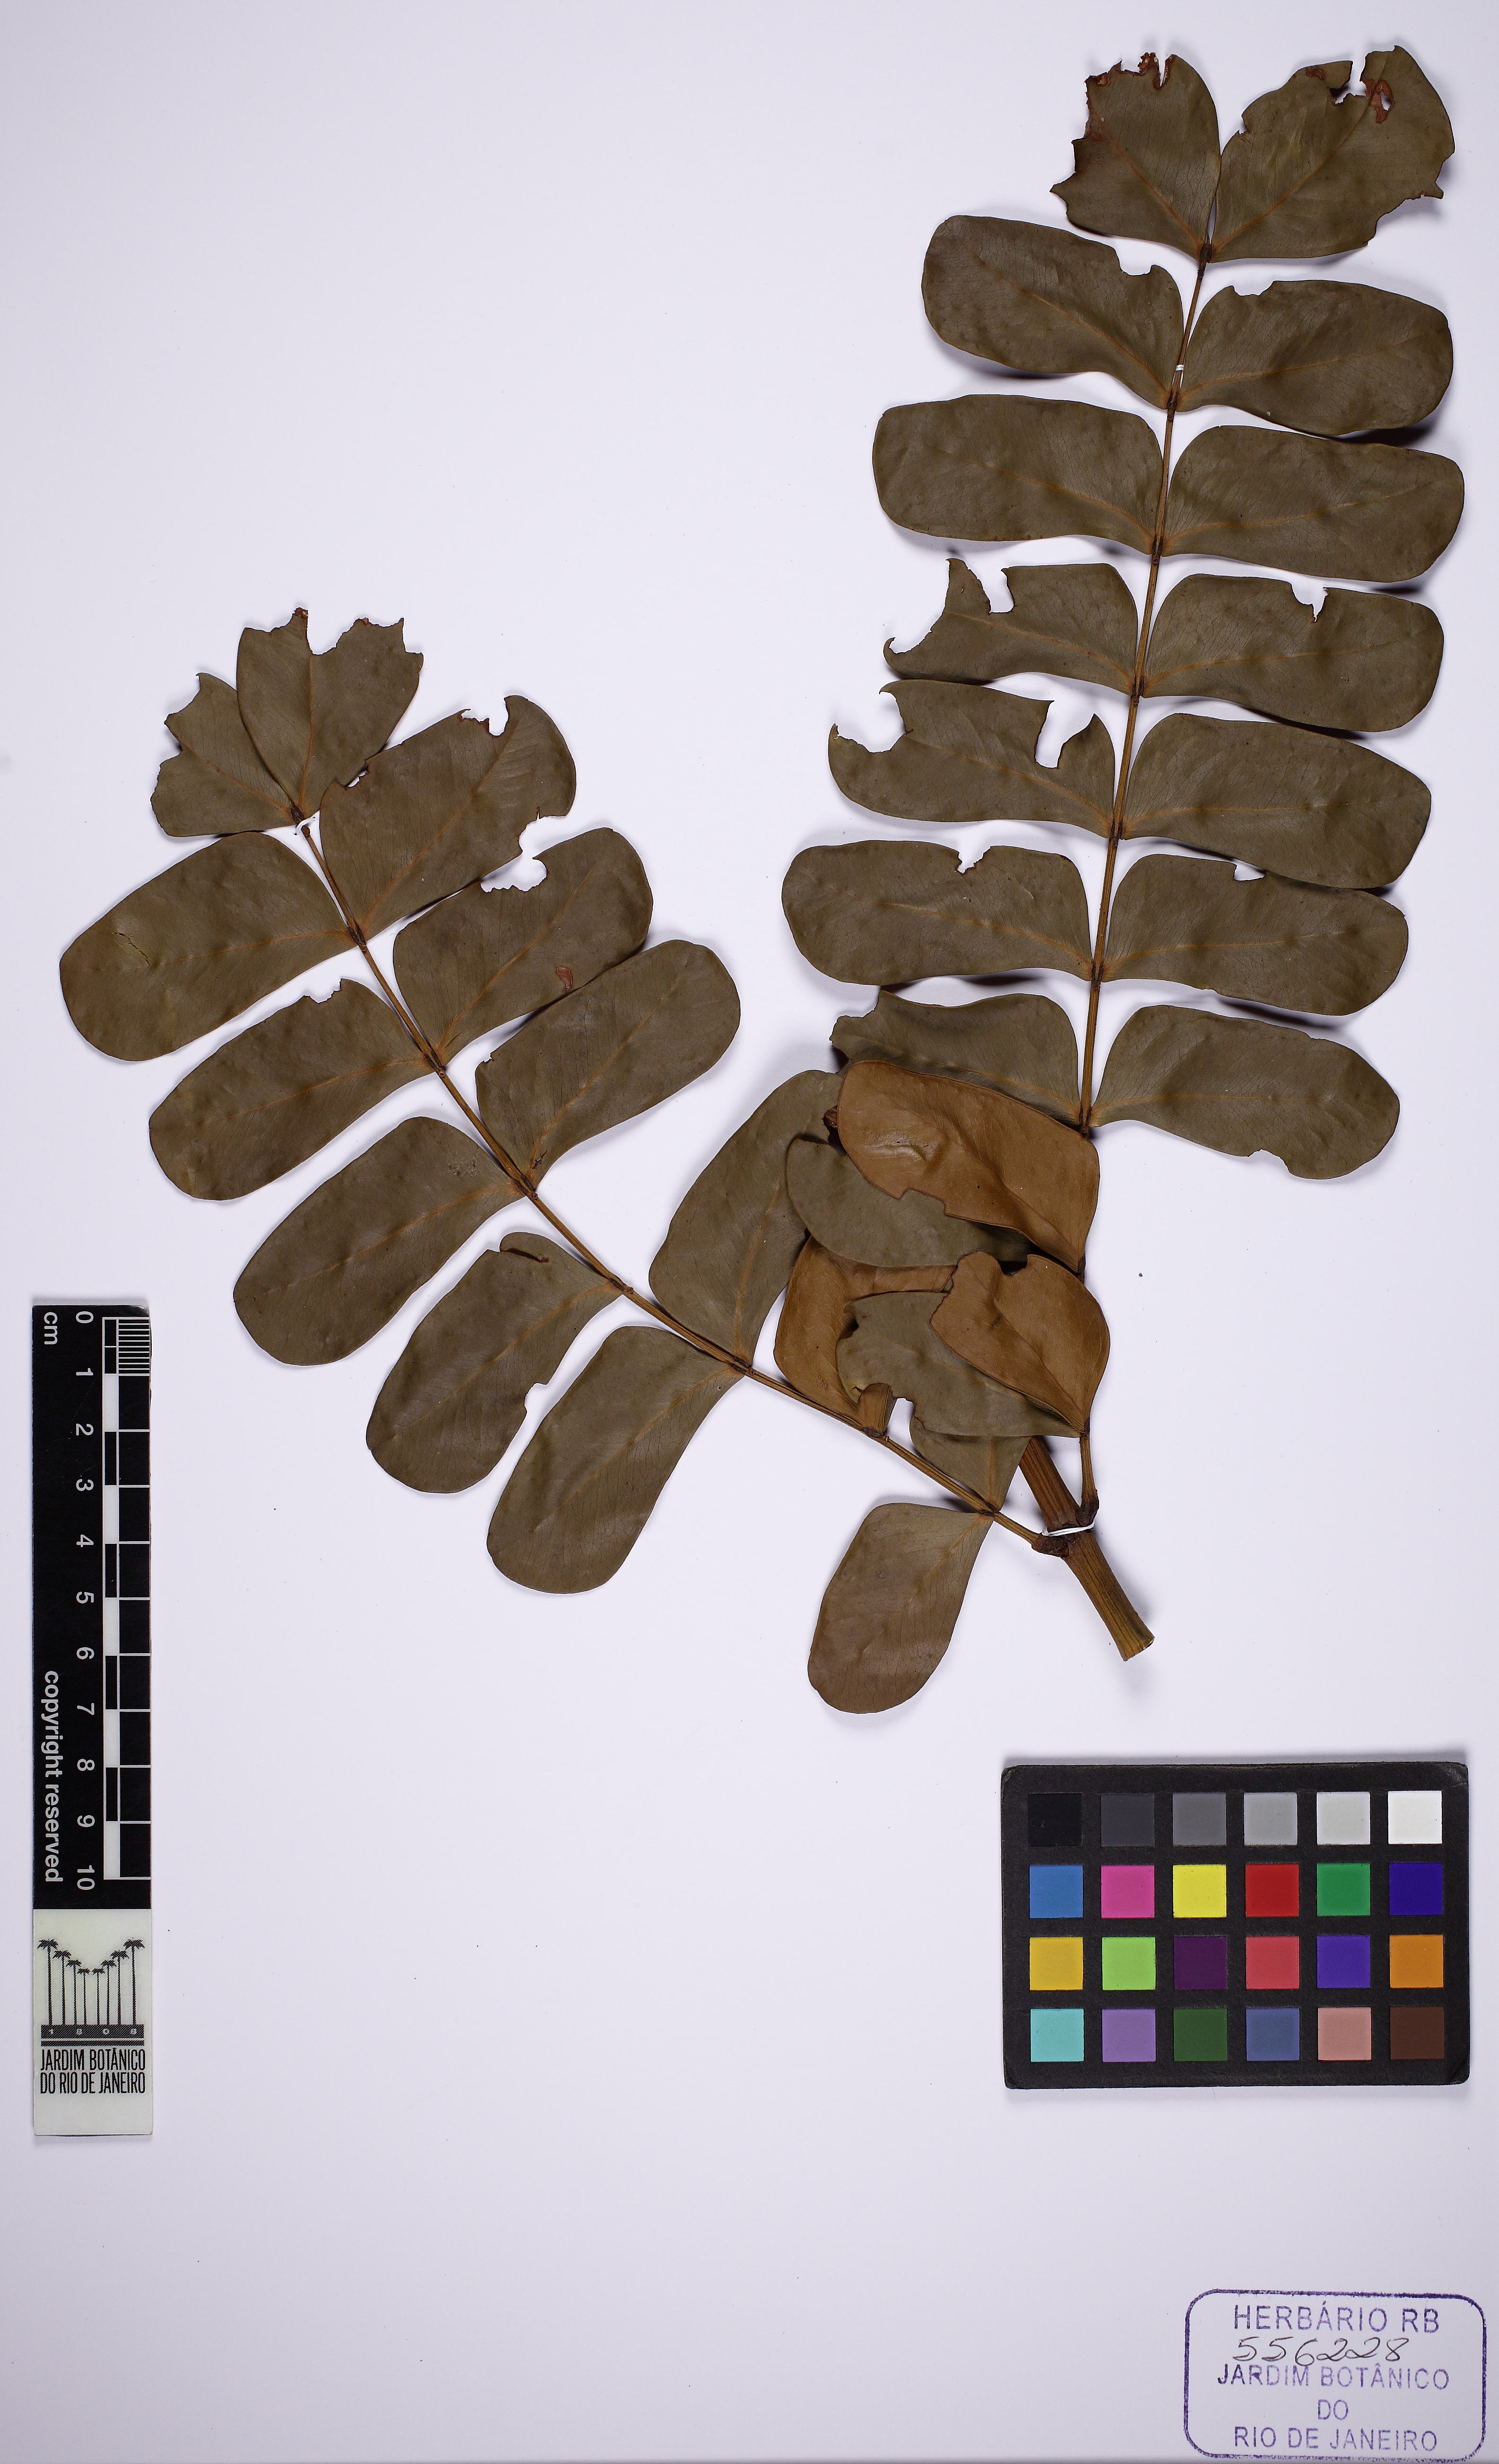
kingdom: Plantae
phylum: Tracheophyta
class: Magnoliopsida
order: Fabales
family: Fabaceae
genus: Macrosamanea
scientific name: Macrosamanea amplissima
